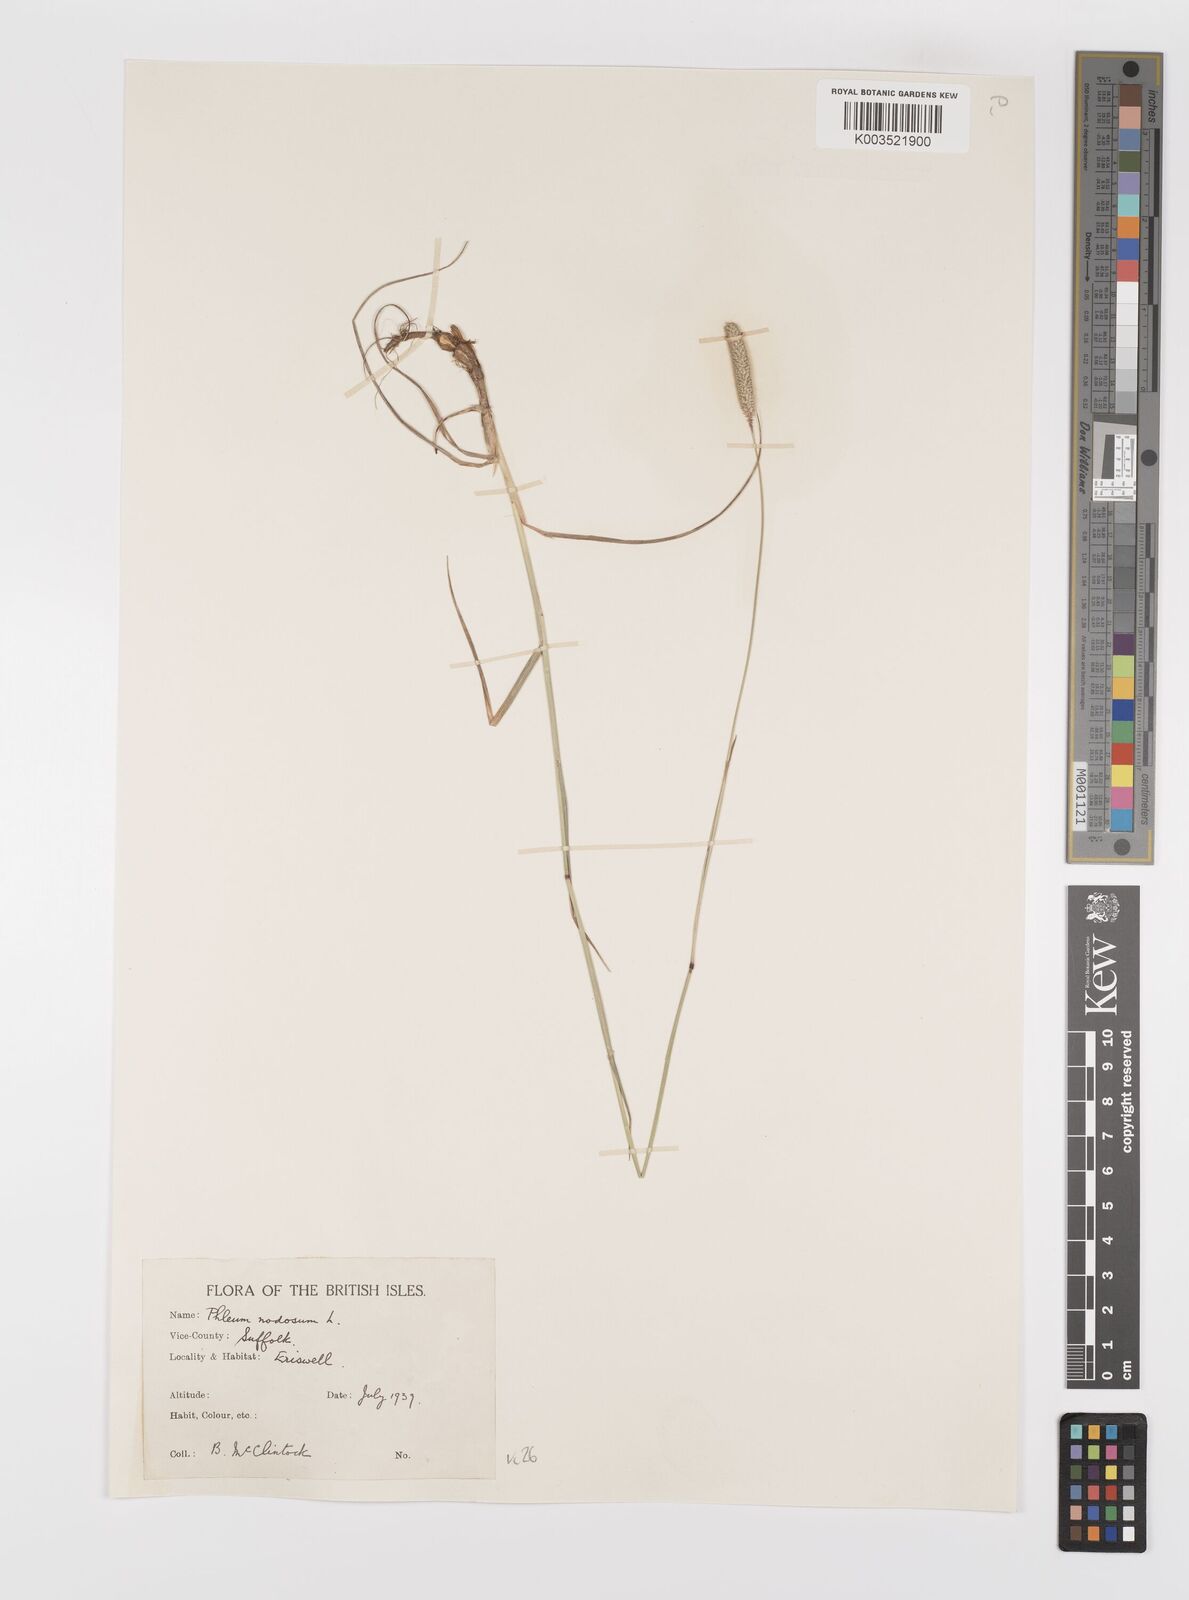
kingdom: Plantae
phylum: Tracheophyta
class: Liliopsida
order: Poales
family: Poaceae
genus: Phleum
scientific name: Phleum bertolonii
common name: Smaller cat's-tail
